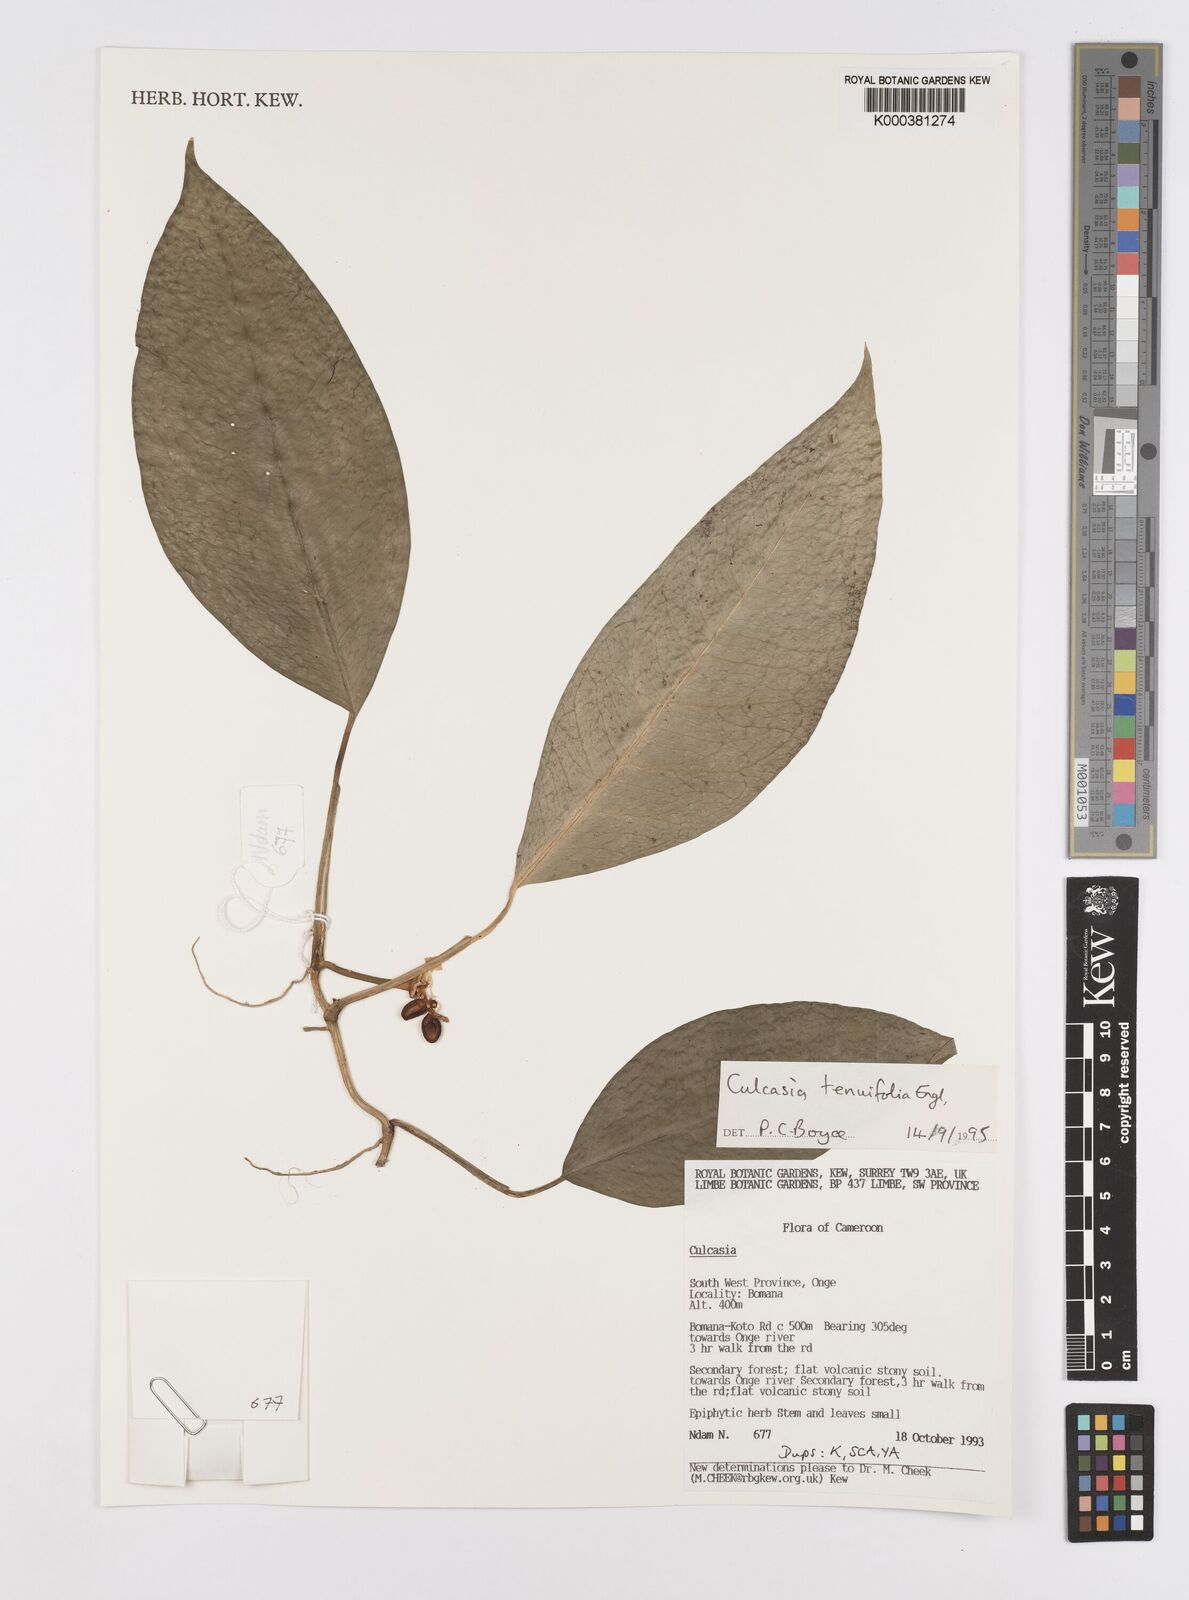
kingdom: Plantae
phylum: Tracheophyta
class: Liliopsida
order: Alismatales
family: Araceae
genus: Culcasia
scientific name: Culcasia tenuifolia
